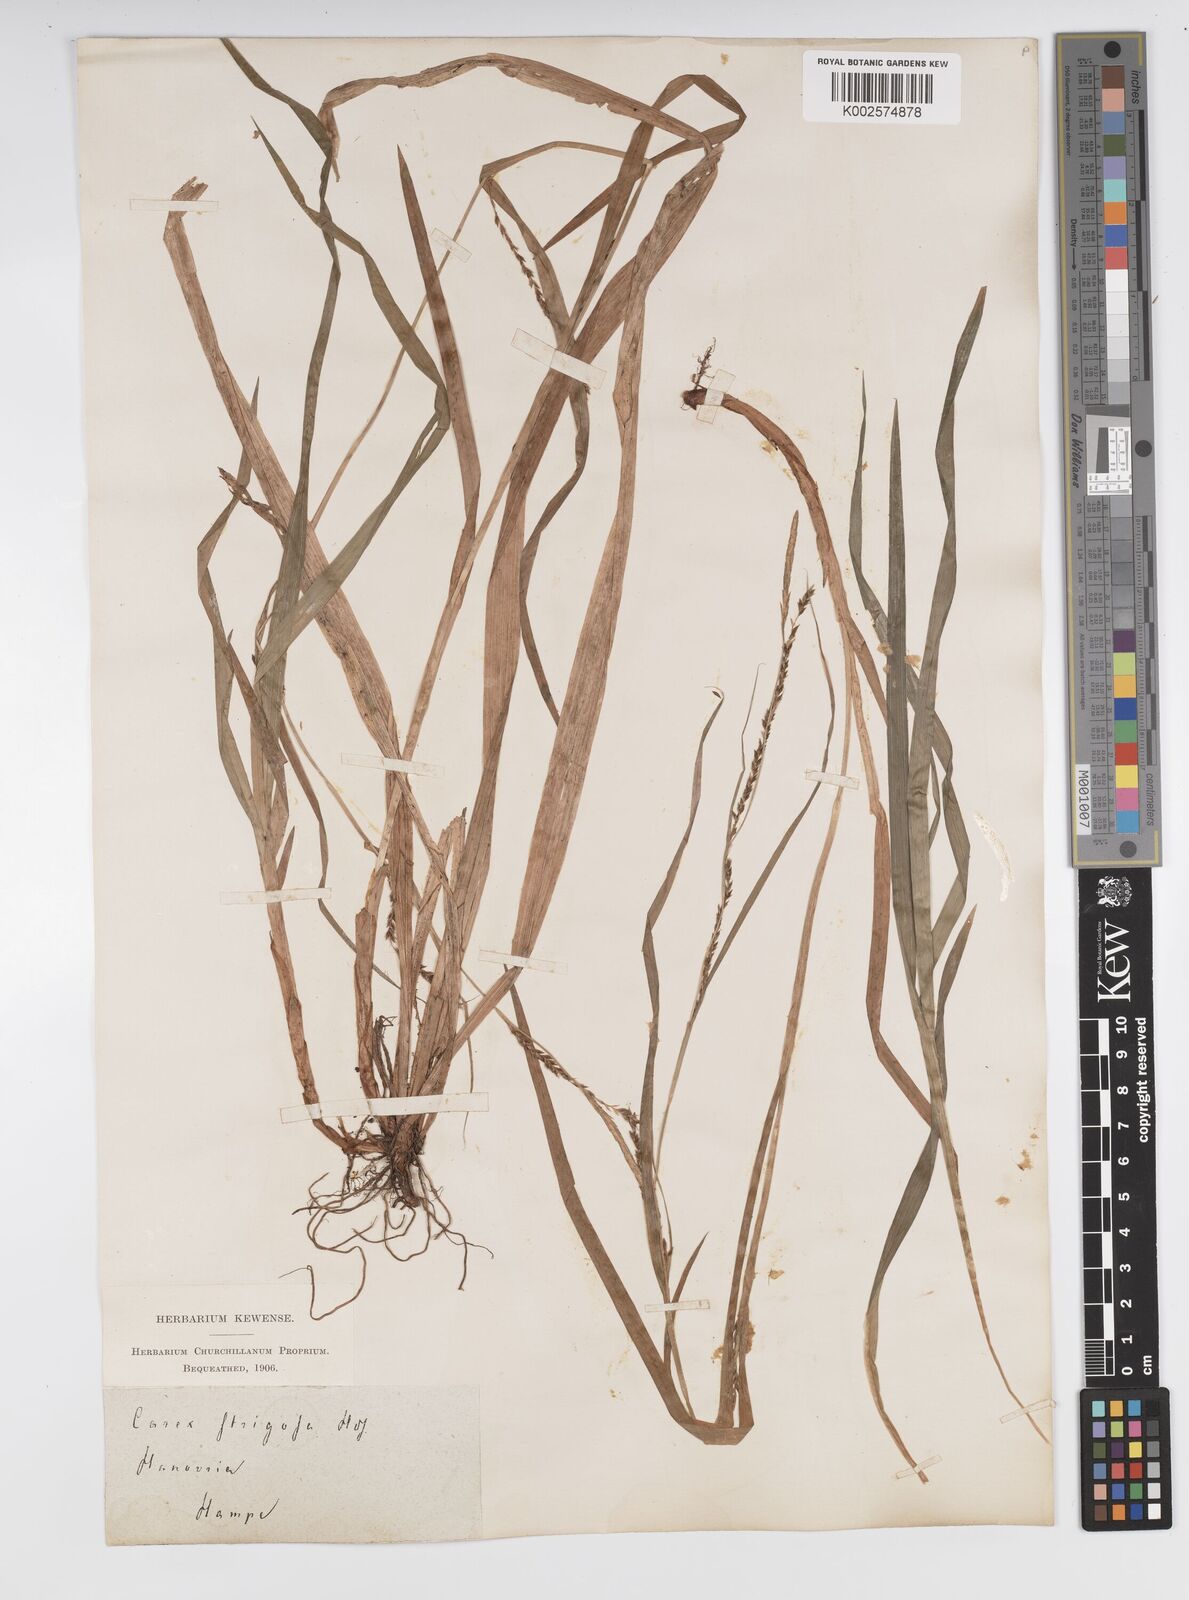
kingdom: Plantae
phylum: Tracheophyta
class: Liliopsida
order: Poales
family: Cyperaceae
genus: Carex
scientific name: Carex strigosa
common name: Thin-spiked wood-sedge
